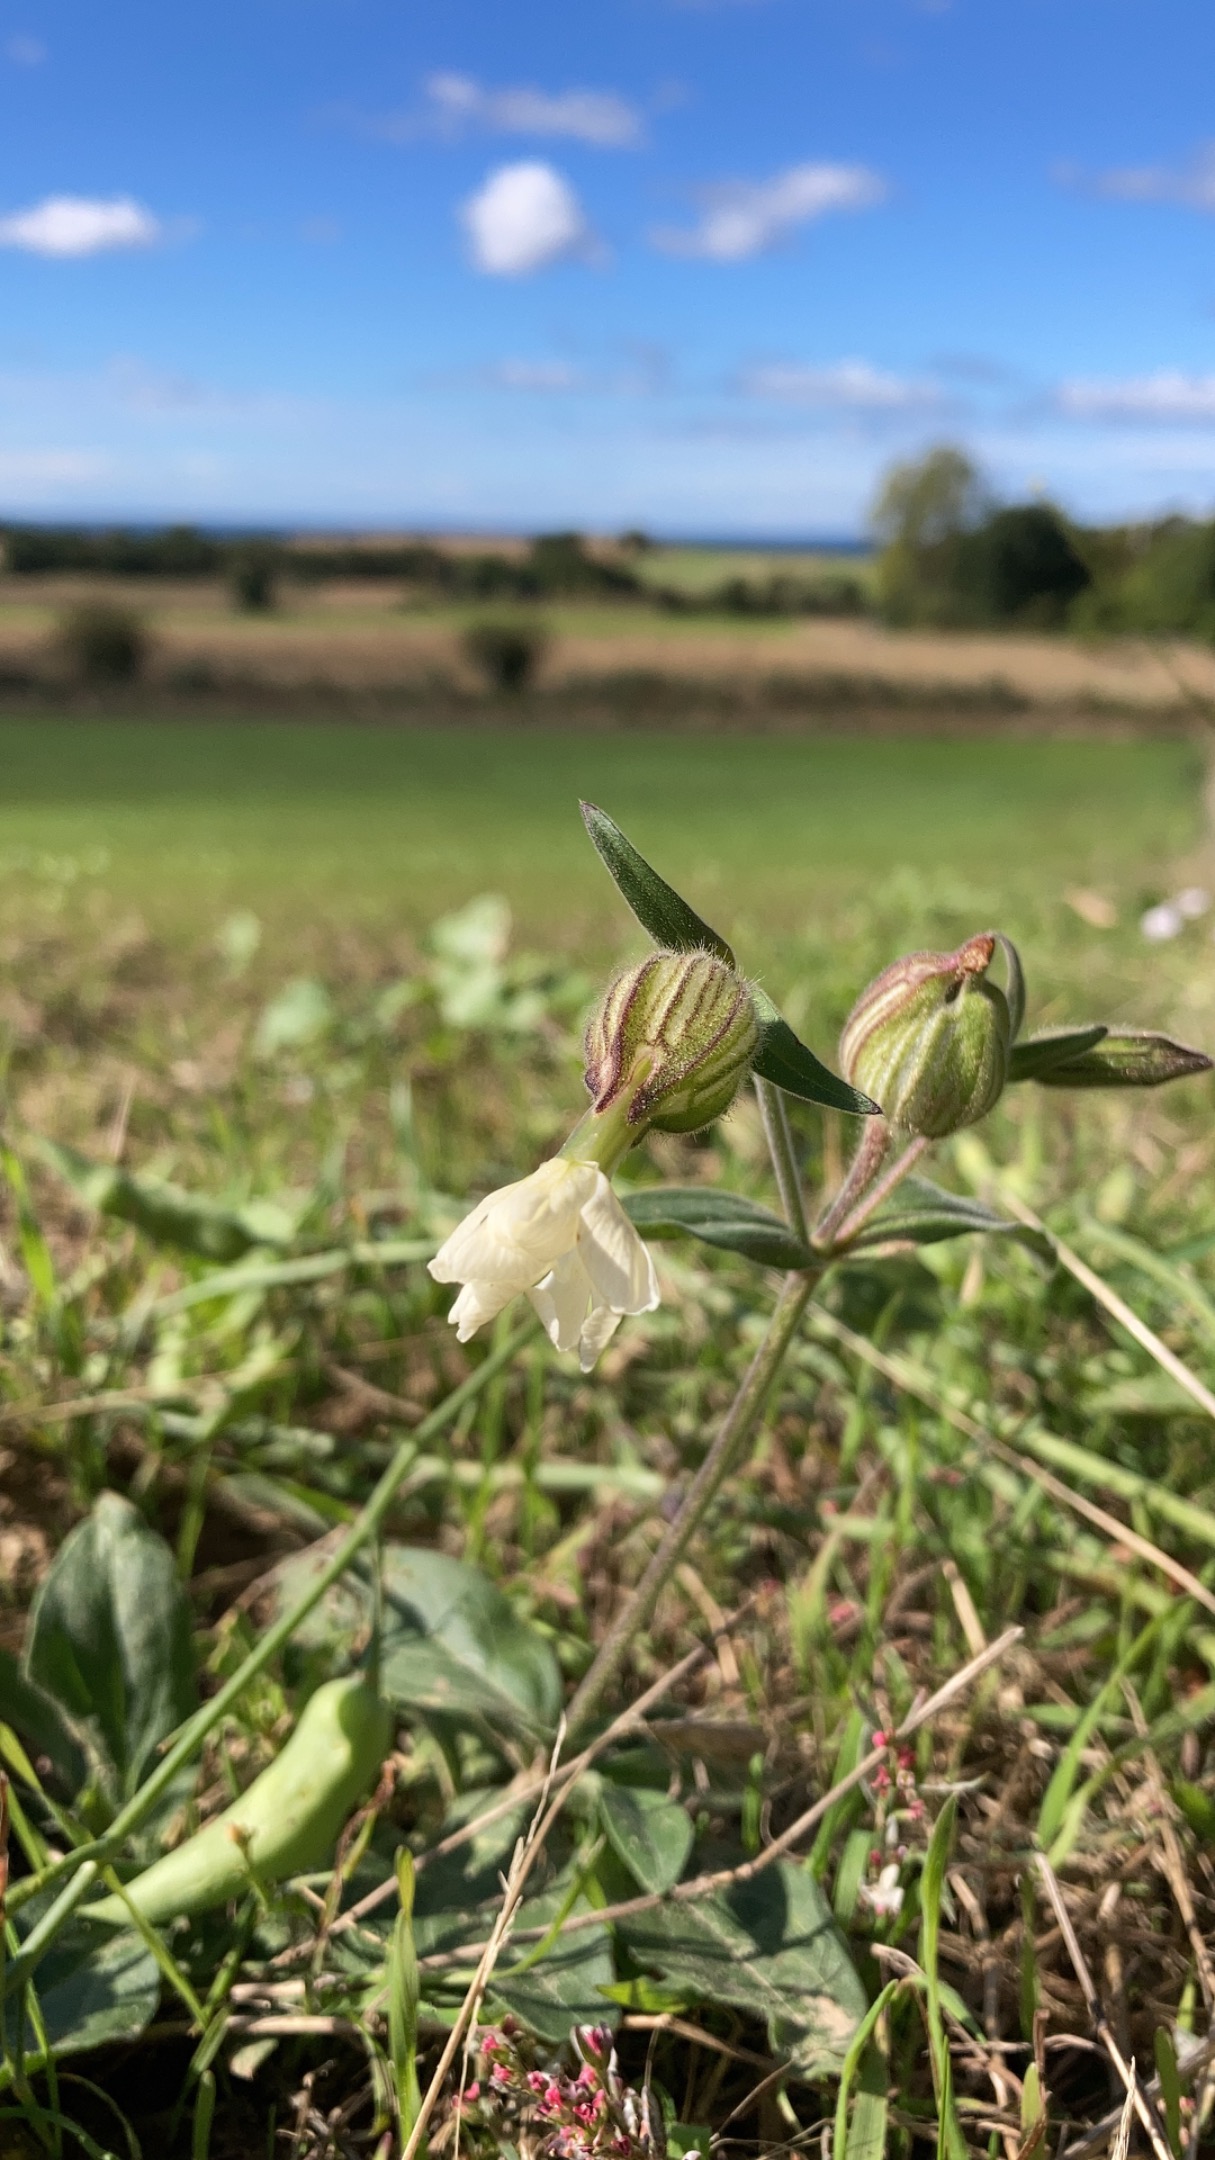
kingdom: Plantae
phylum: Tracheophyta
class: Magnoliopsida
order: Caryophyllales
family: Caryophyllaceae
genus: Silene
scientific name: Silene latifolia
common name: Aftenpragtstjerne
